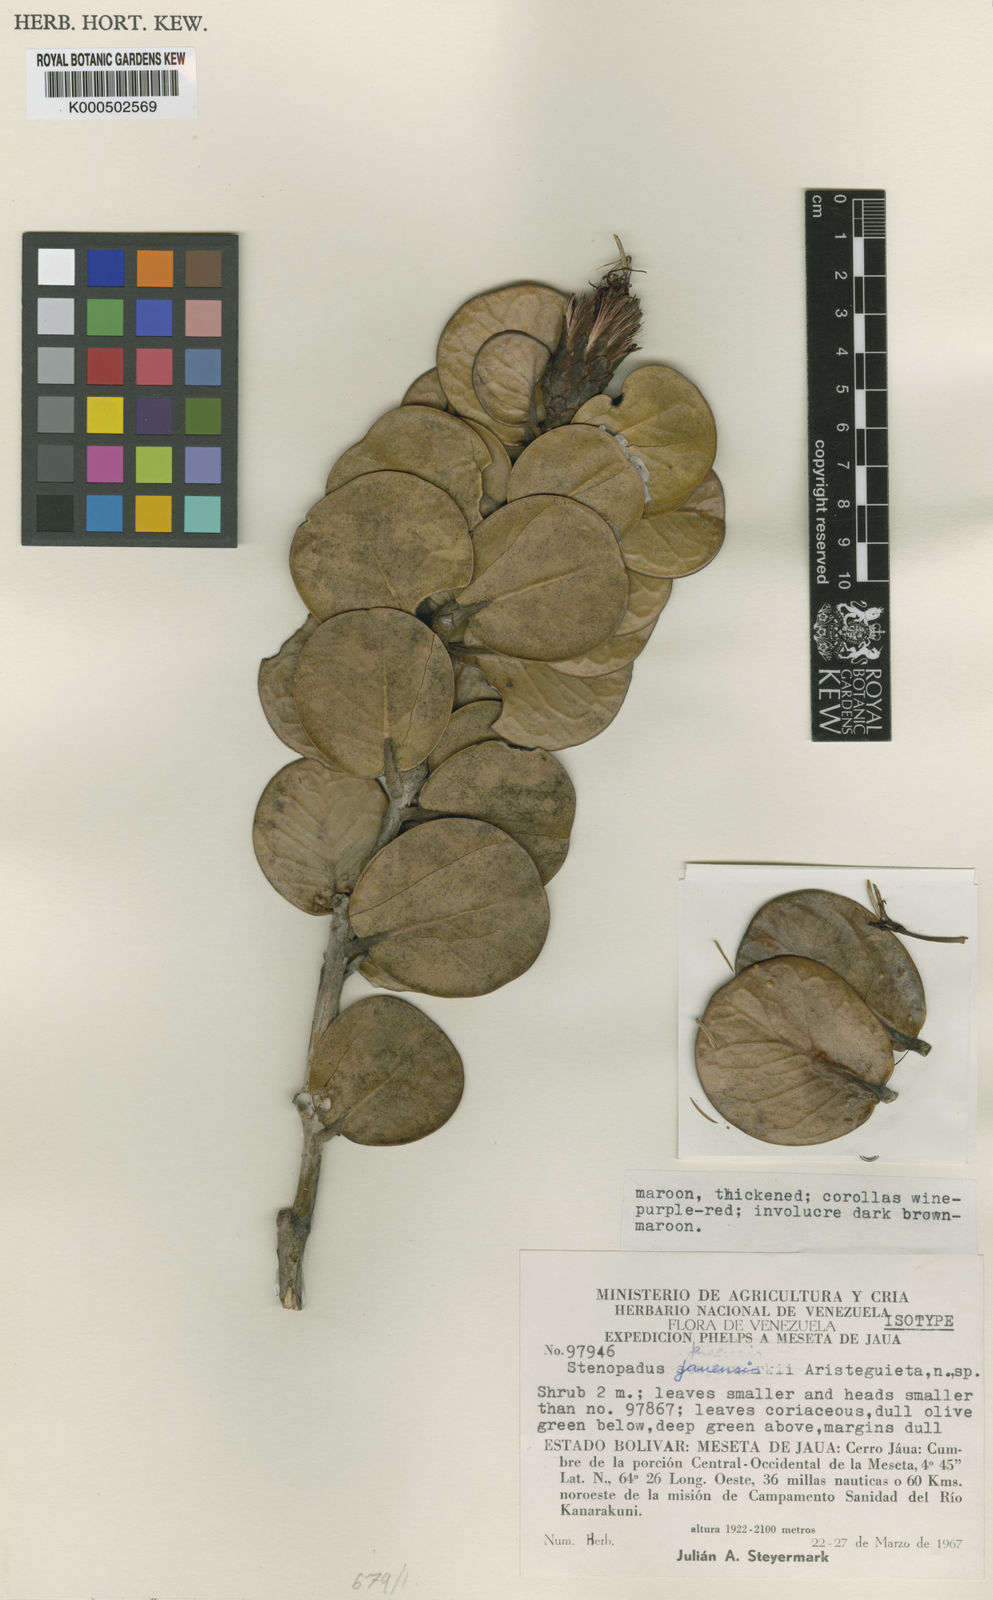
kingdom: Plantae
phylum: Tracheophyta
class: Magnoliopsida
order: Asterales
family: Asteraceae
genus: Stenopadus
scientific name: Stenopadus jauensis
